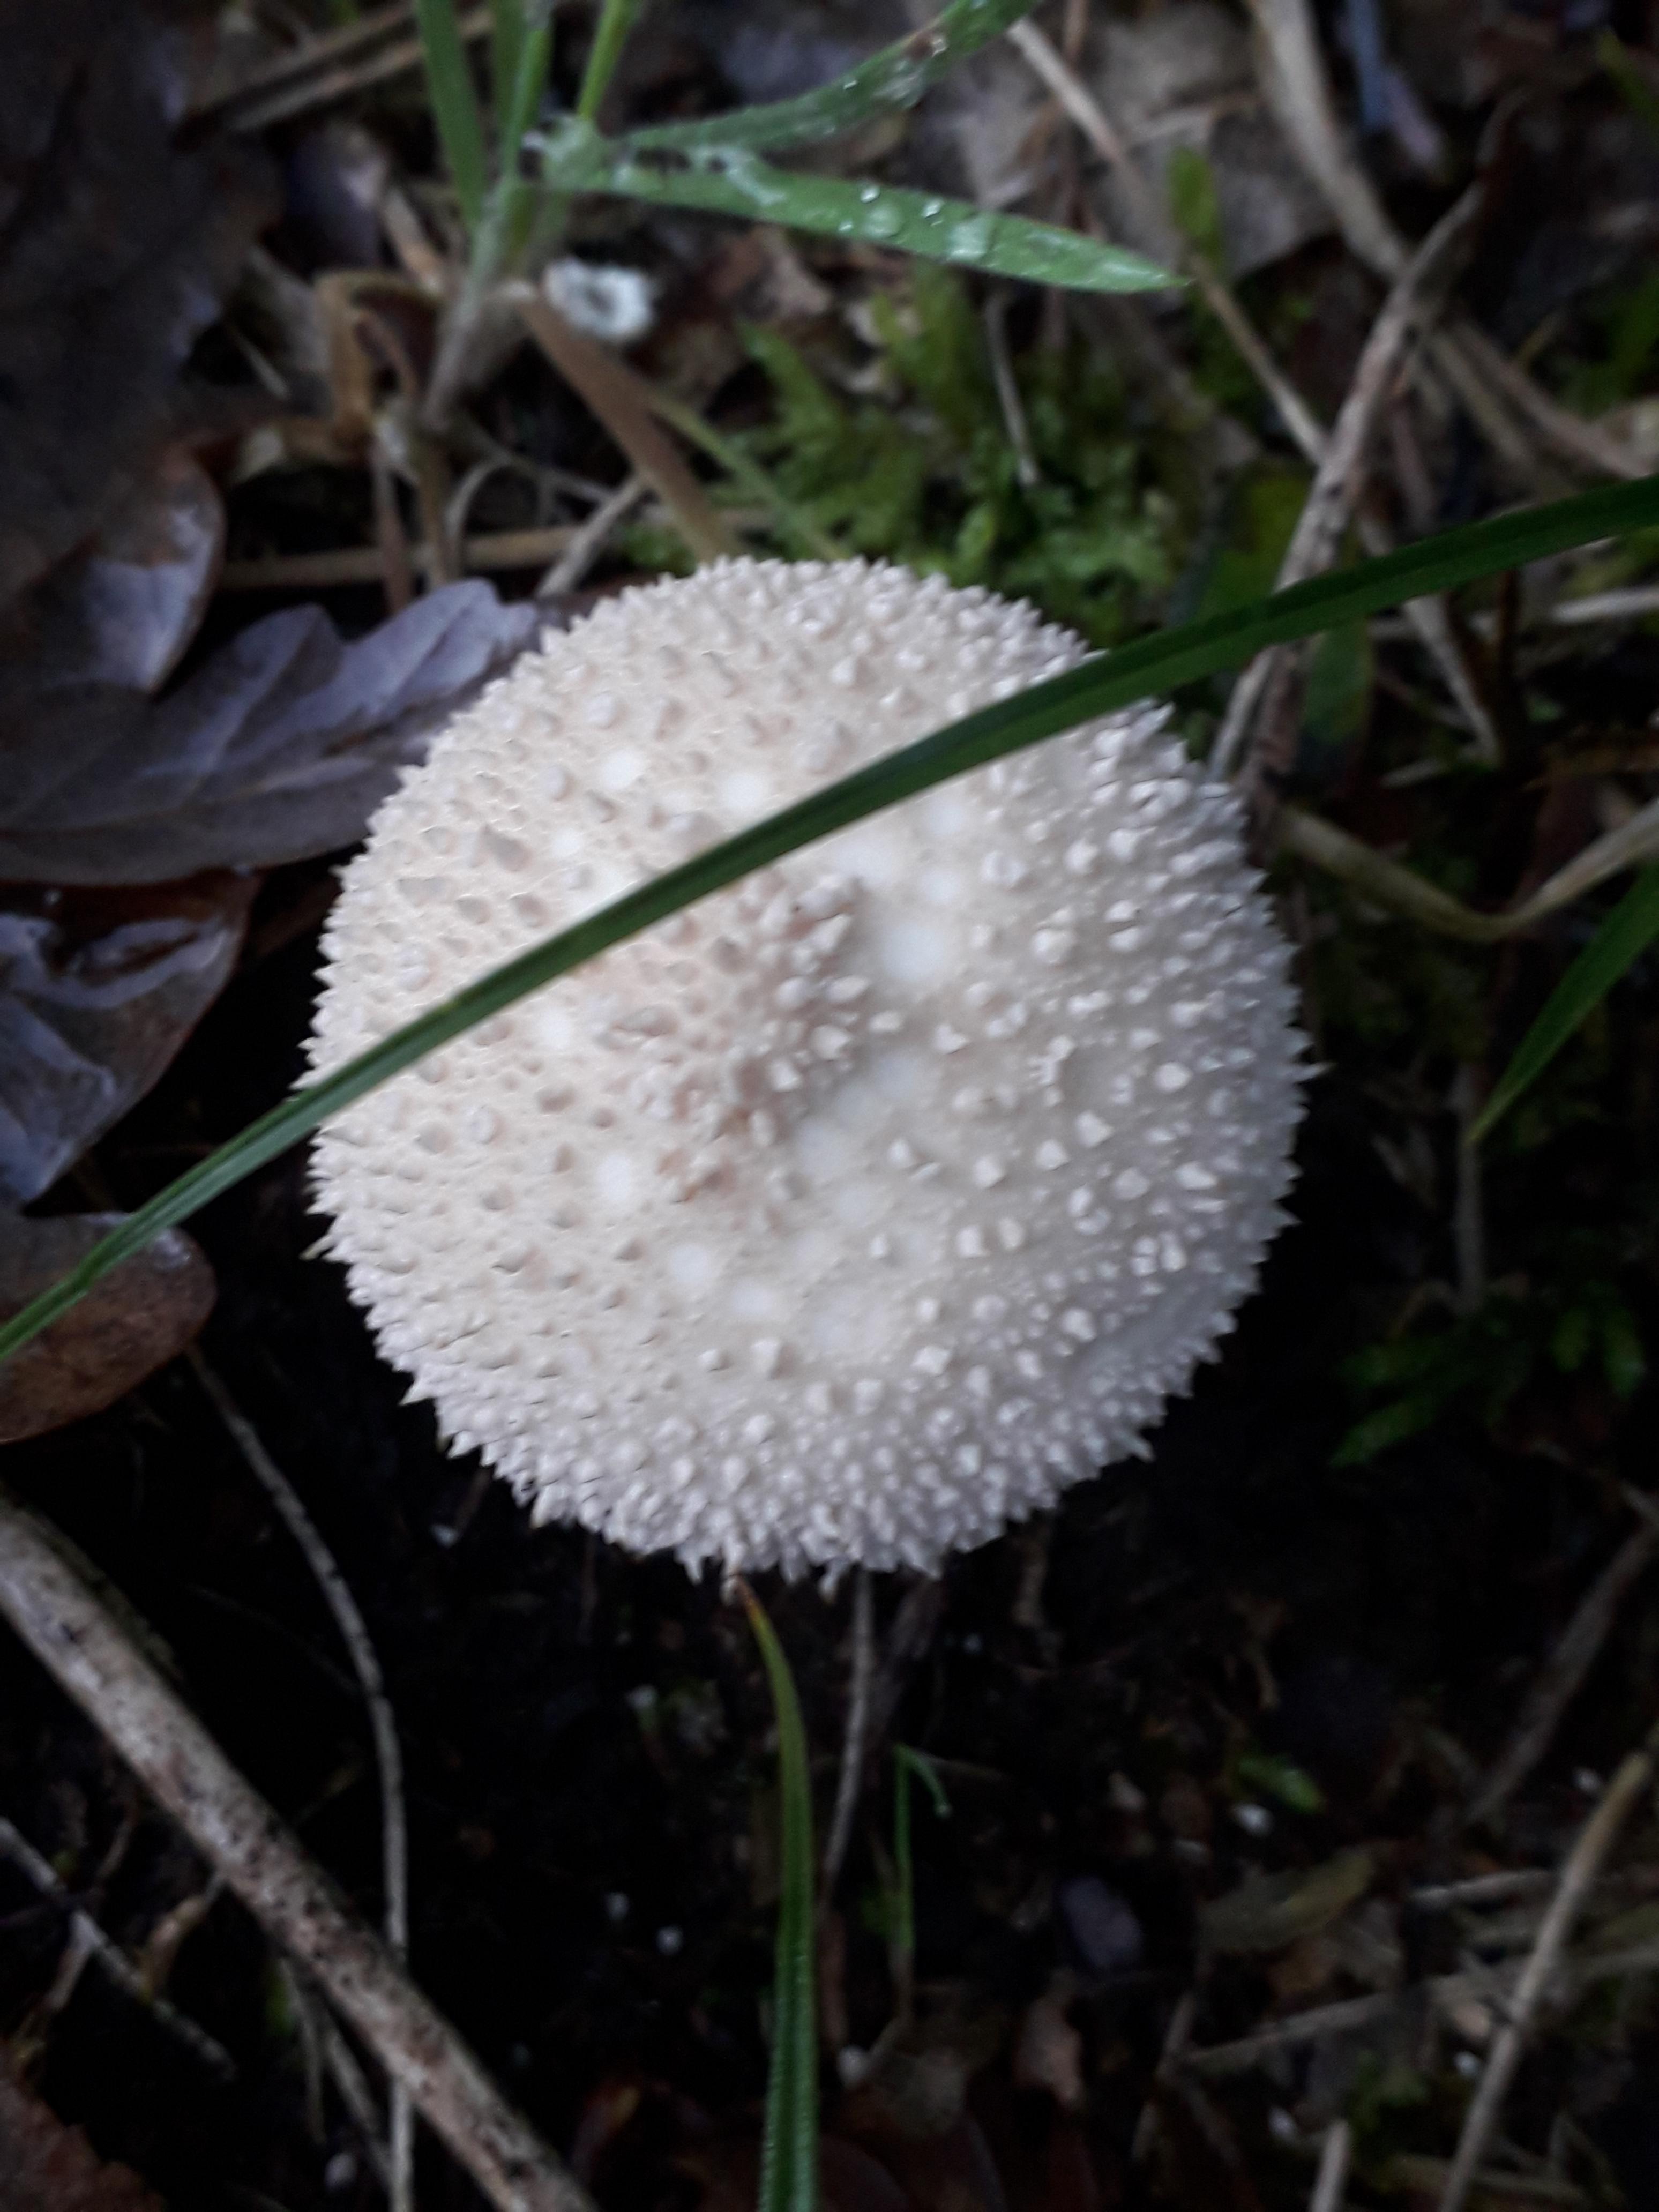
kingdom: Fungi
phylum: Basidiomycota
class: Agaricomycetes
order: Agaricales
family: Lycoperdaceae
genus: Lycoperdon
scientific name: Lycoperdon perlatum
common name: krystal-støvbold
